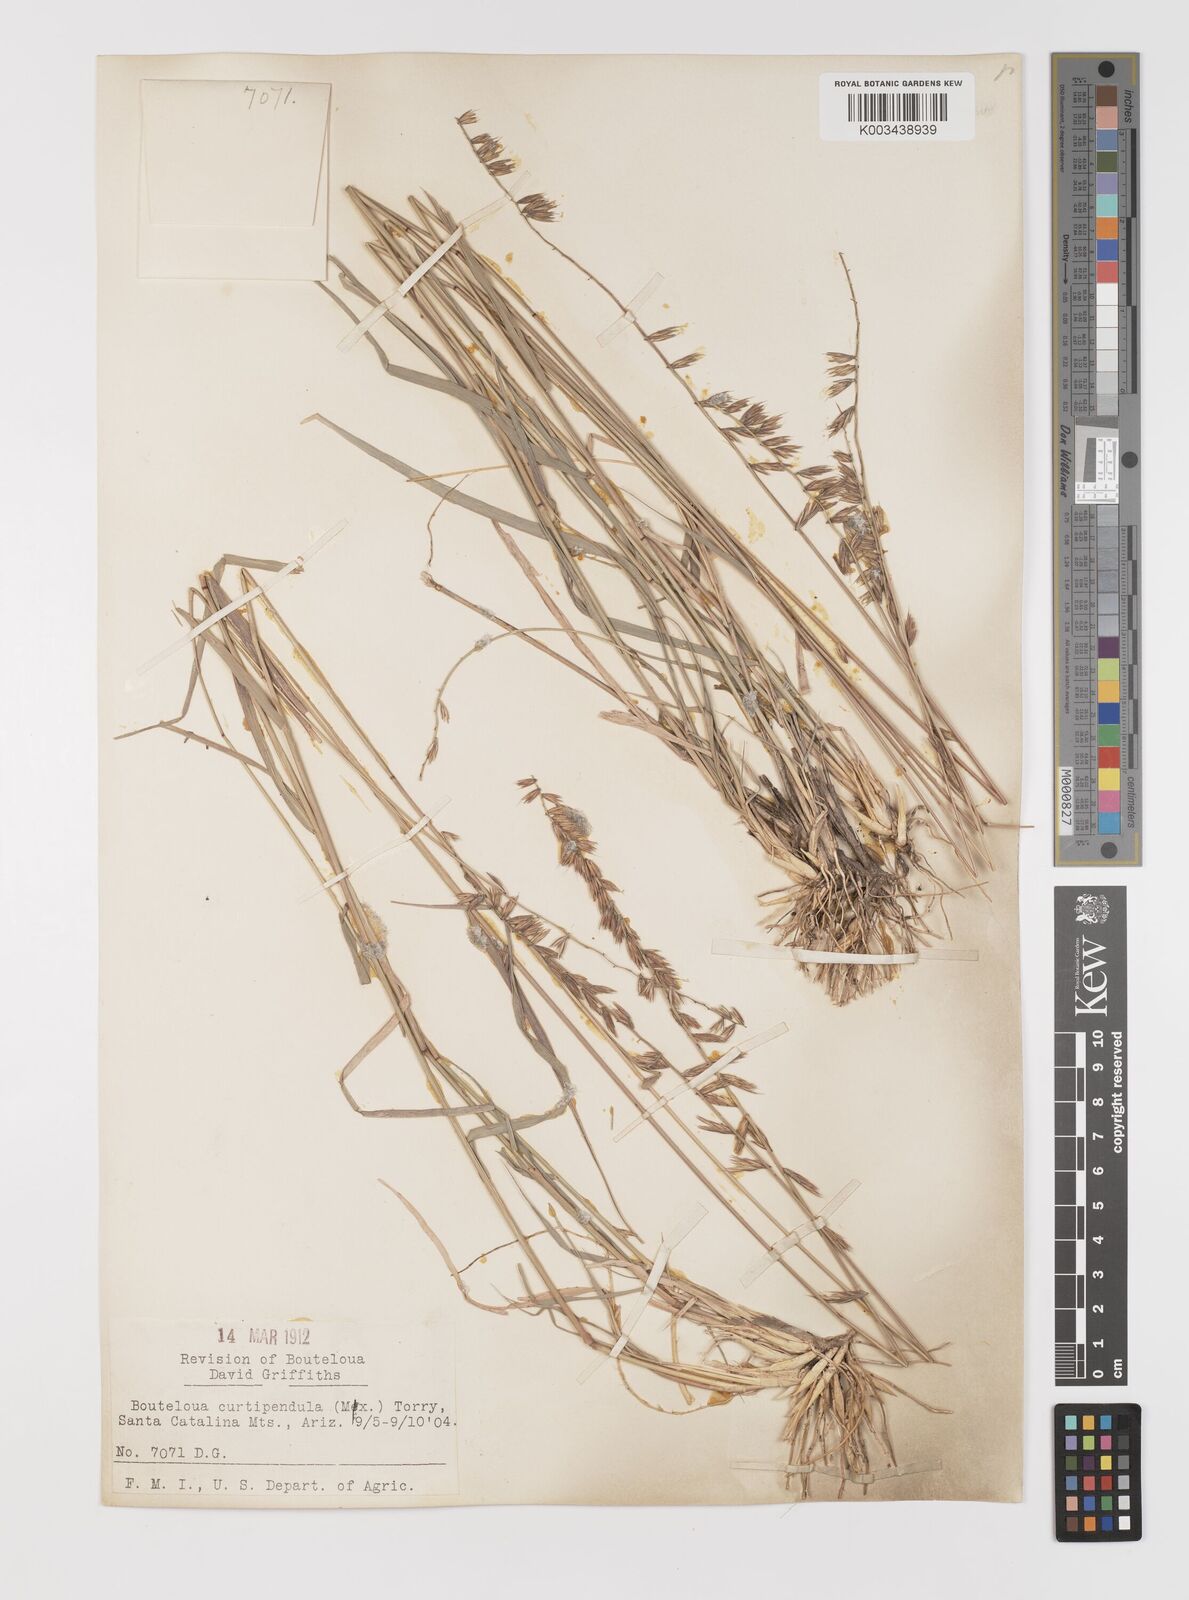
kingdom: Plantae
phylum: Tracheophyta
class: Liliopsida
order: Poales
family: Poaceae
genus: Bouteloua
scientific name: Bouteloua curtipendula
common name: Side-oats grama
